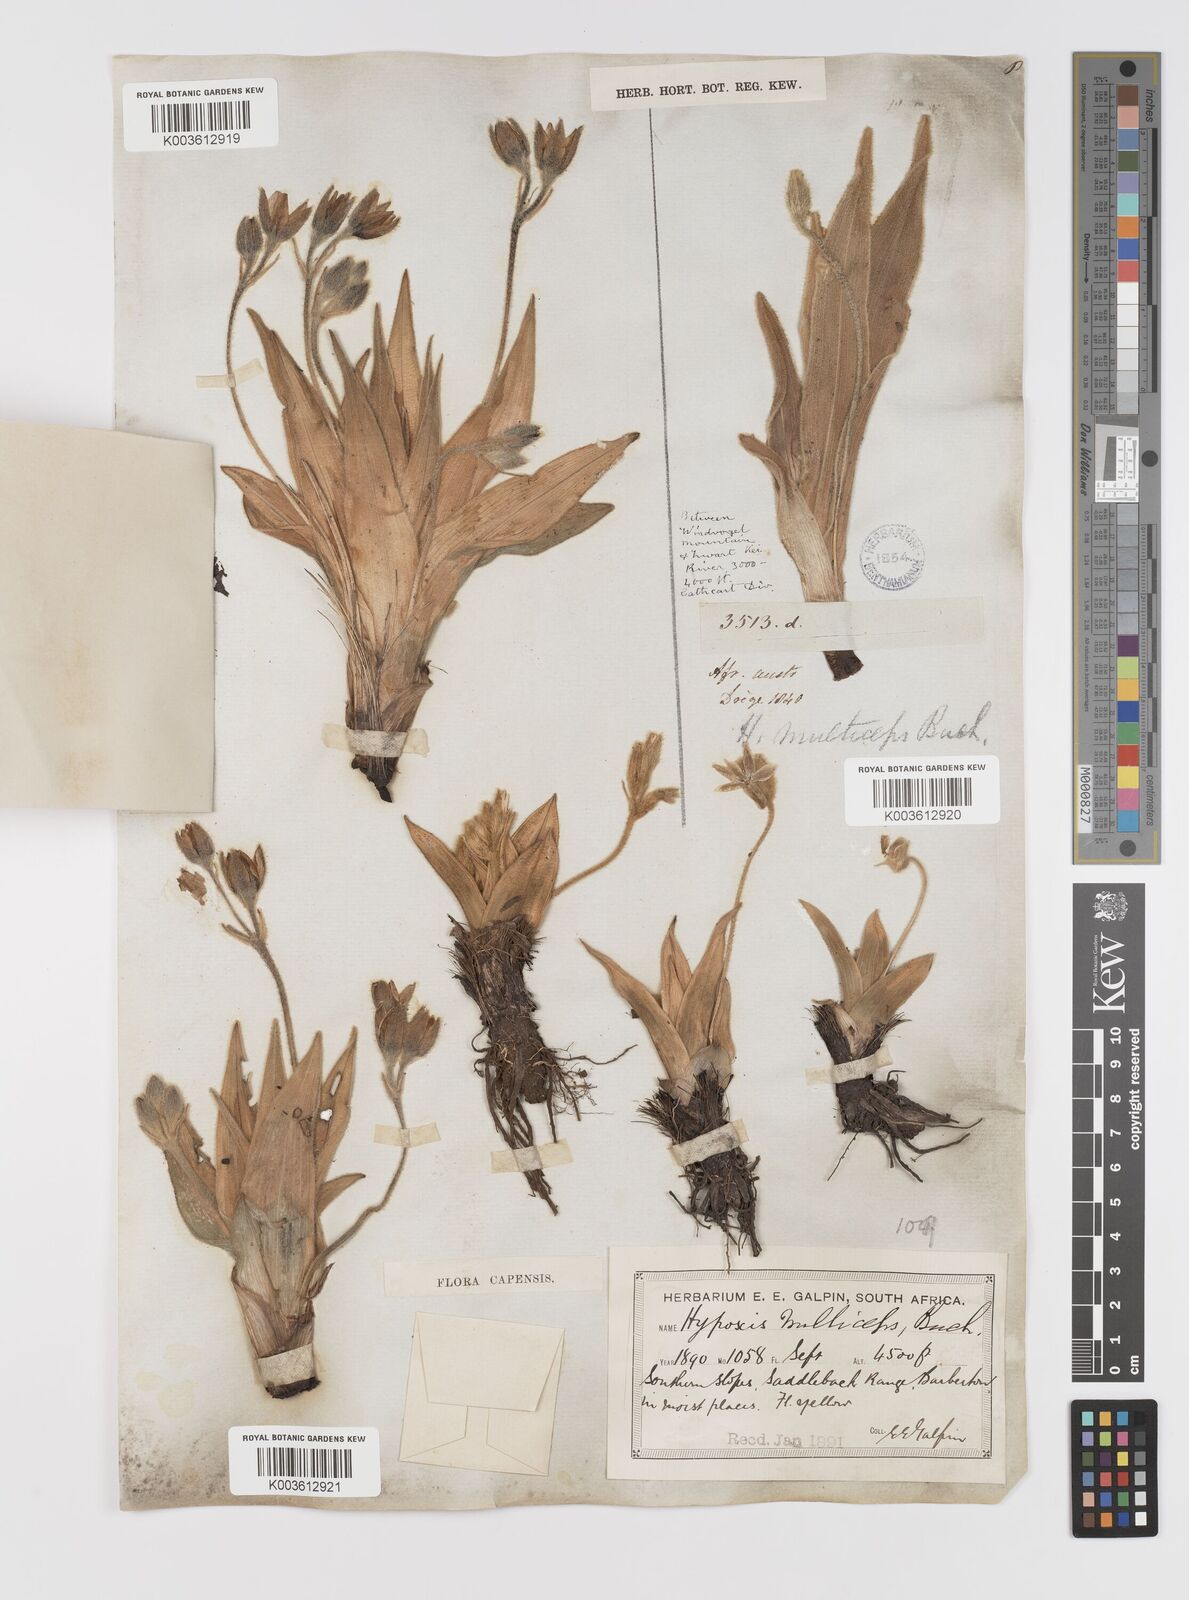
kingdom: Plantae
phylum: Tracheophyta
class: Liliopsida
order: Asparagales
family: Hypoxidaceae
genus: Hypoxis
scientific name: Hypoxis multiceps
